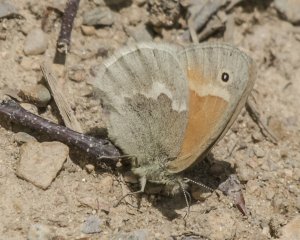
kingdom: Animalia
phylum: Arthropoda
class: Insecta
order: Lepidoptera
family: Nymphalidae
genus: Coenonympha
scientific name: Coenonympha tullia
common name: Large Heath
